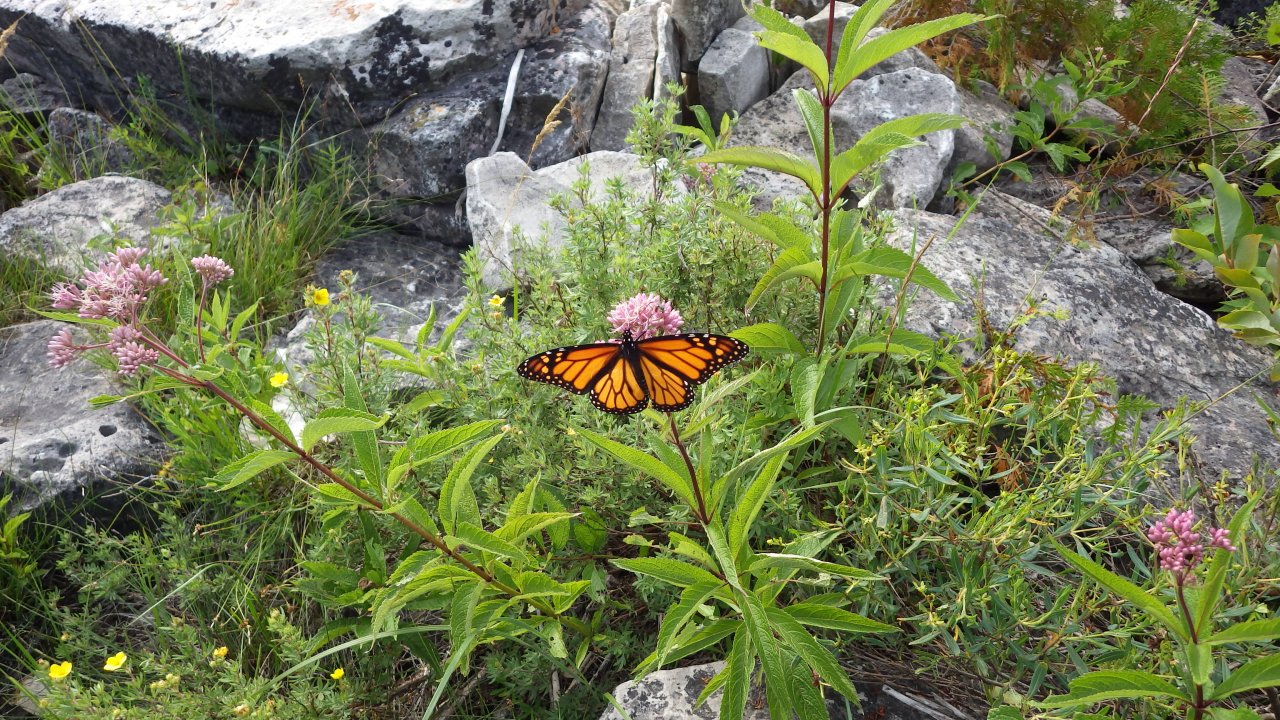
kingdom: Animalia
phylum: Arthropoda
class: Insecta
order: Lepidoptera
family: Nymphalidae
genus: Danaus
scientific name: Danaus plexippus
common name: Monarch
